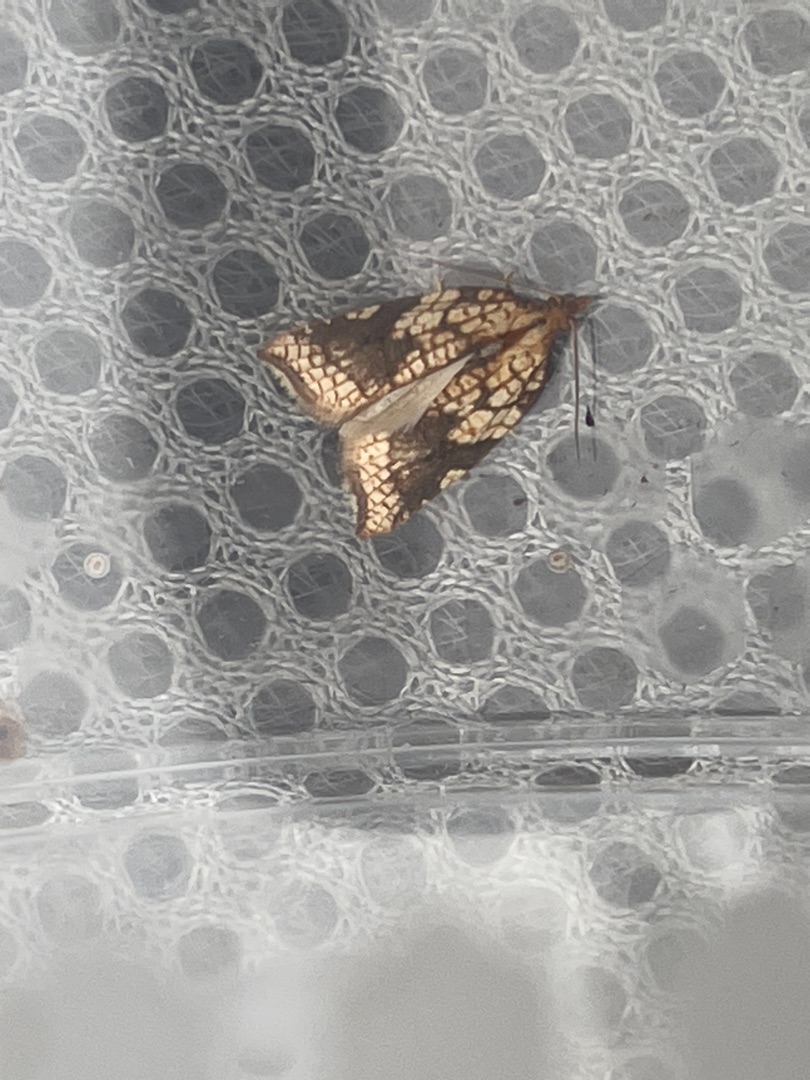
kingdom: Animalia
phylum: Arthropoda
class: Insecta
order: Lepidoptera
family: Tortricidae
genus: Acleris
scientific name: Acleris rhombana
